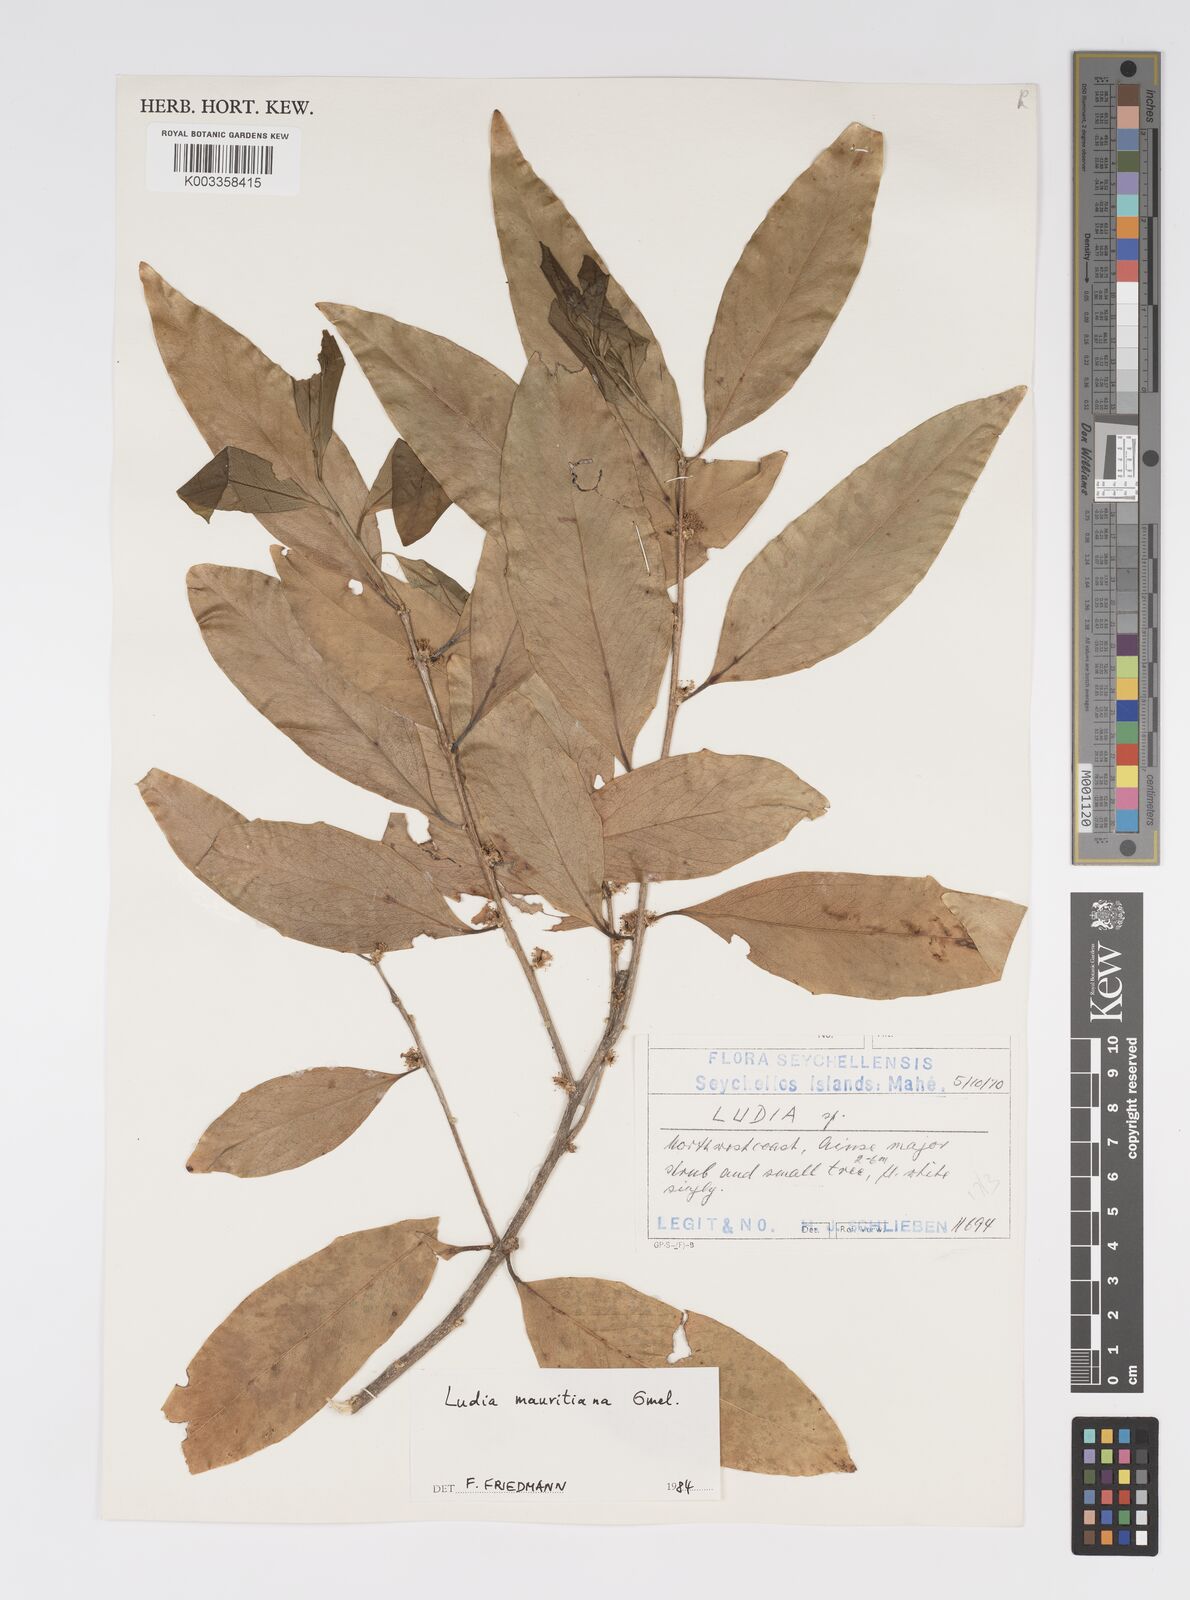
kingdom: Plantae
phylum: Tracheophyta
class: Magnoliopsida
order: Malpighiales
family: Salicaceae
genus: Ludia
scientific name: Ludia mauritiana
